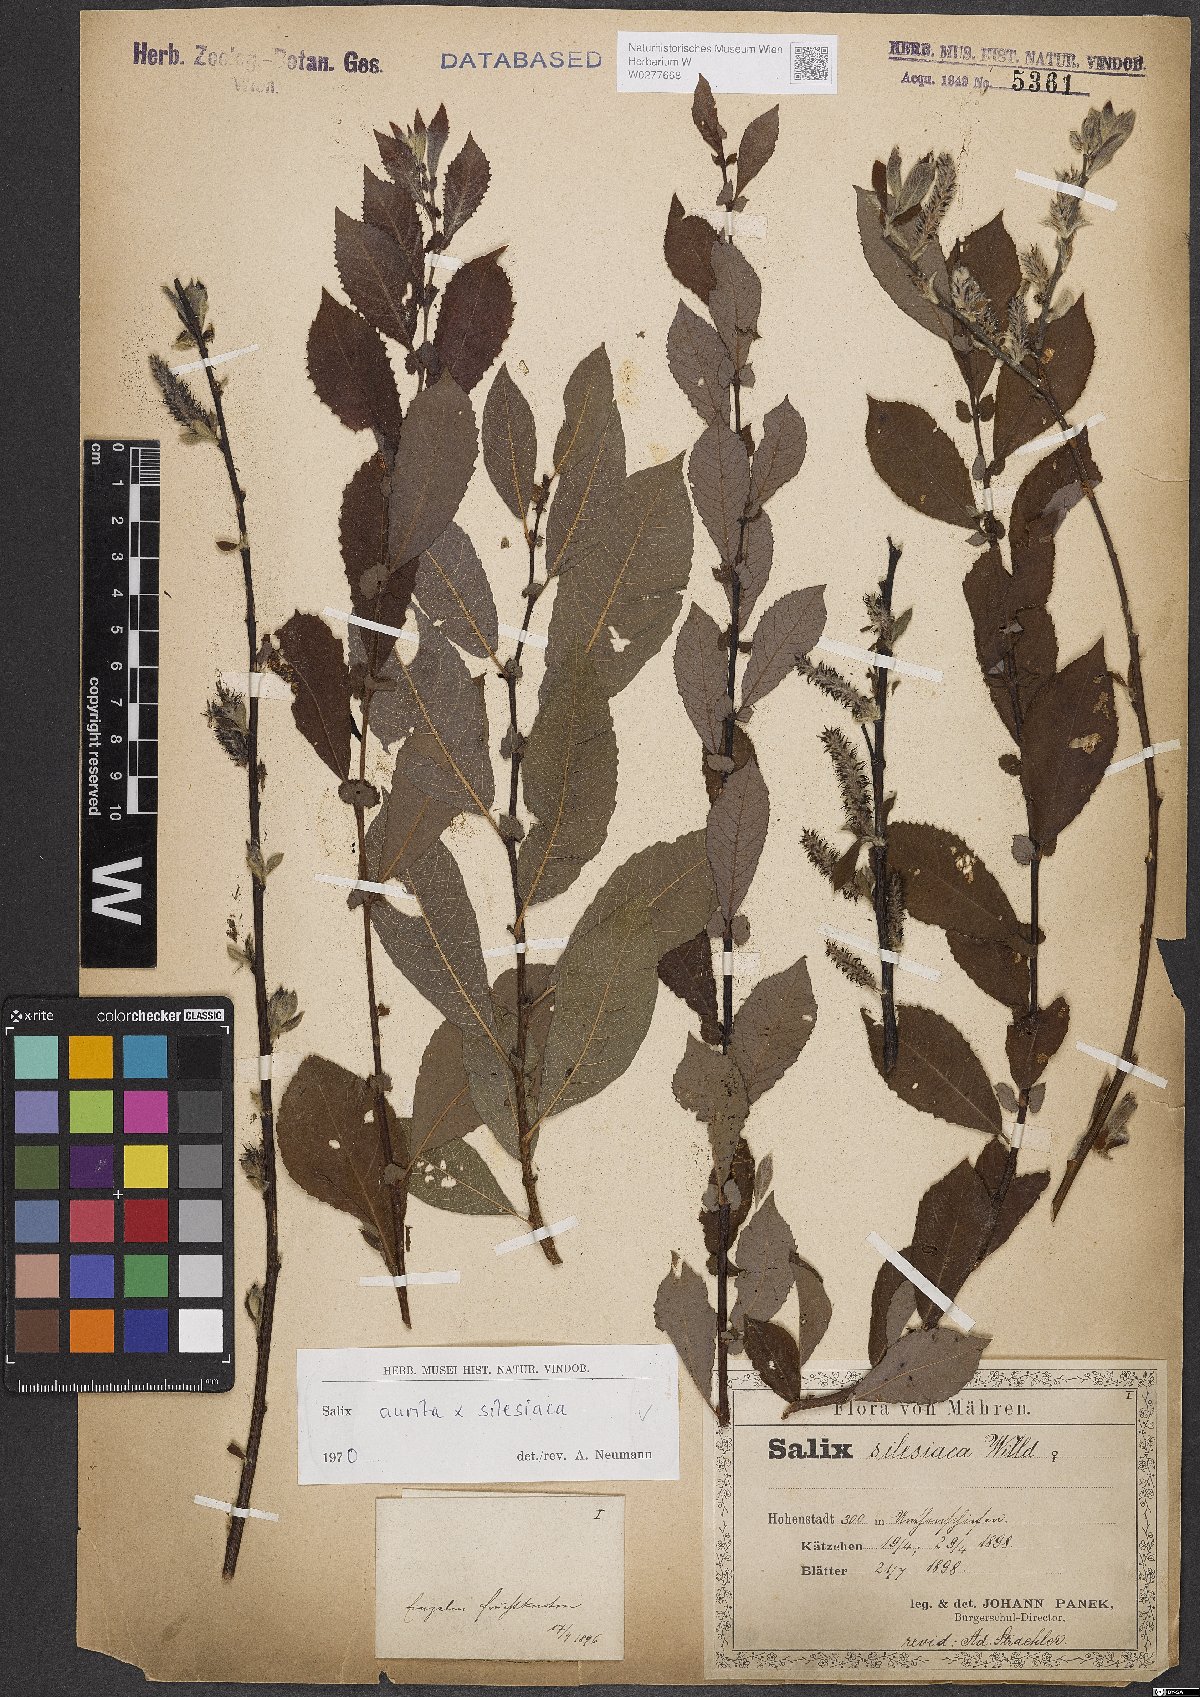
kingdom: Plantae
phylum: Tracheophyta
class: Magnoliopsida
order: Malpighiales
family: Salicaceae
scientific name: Salicaceae
